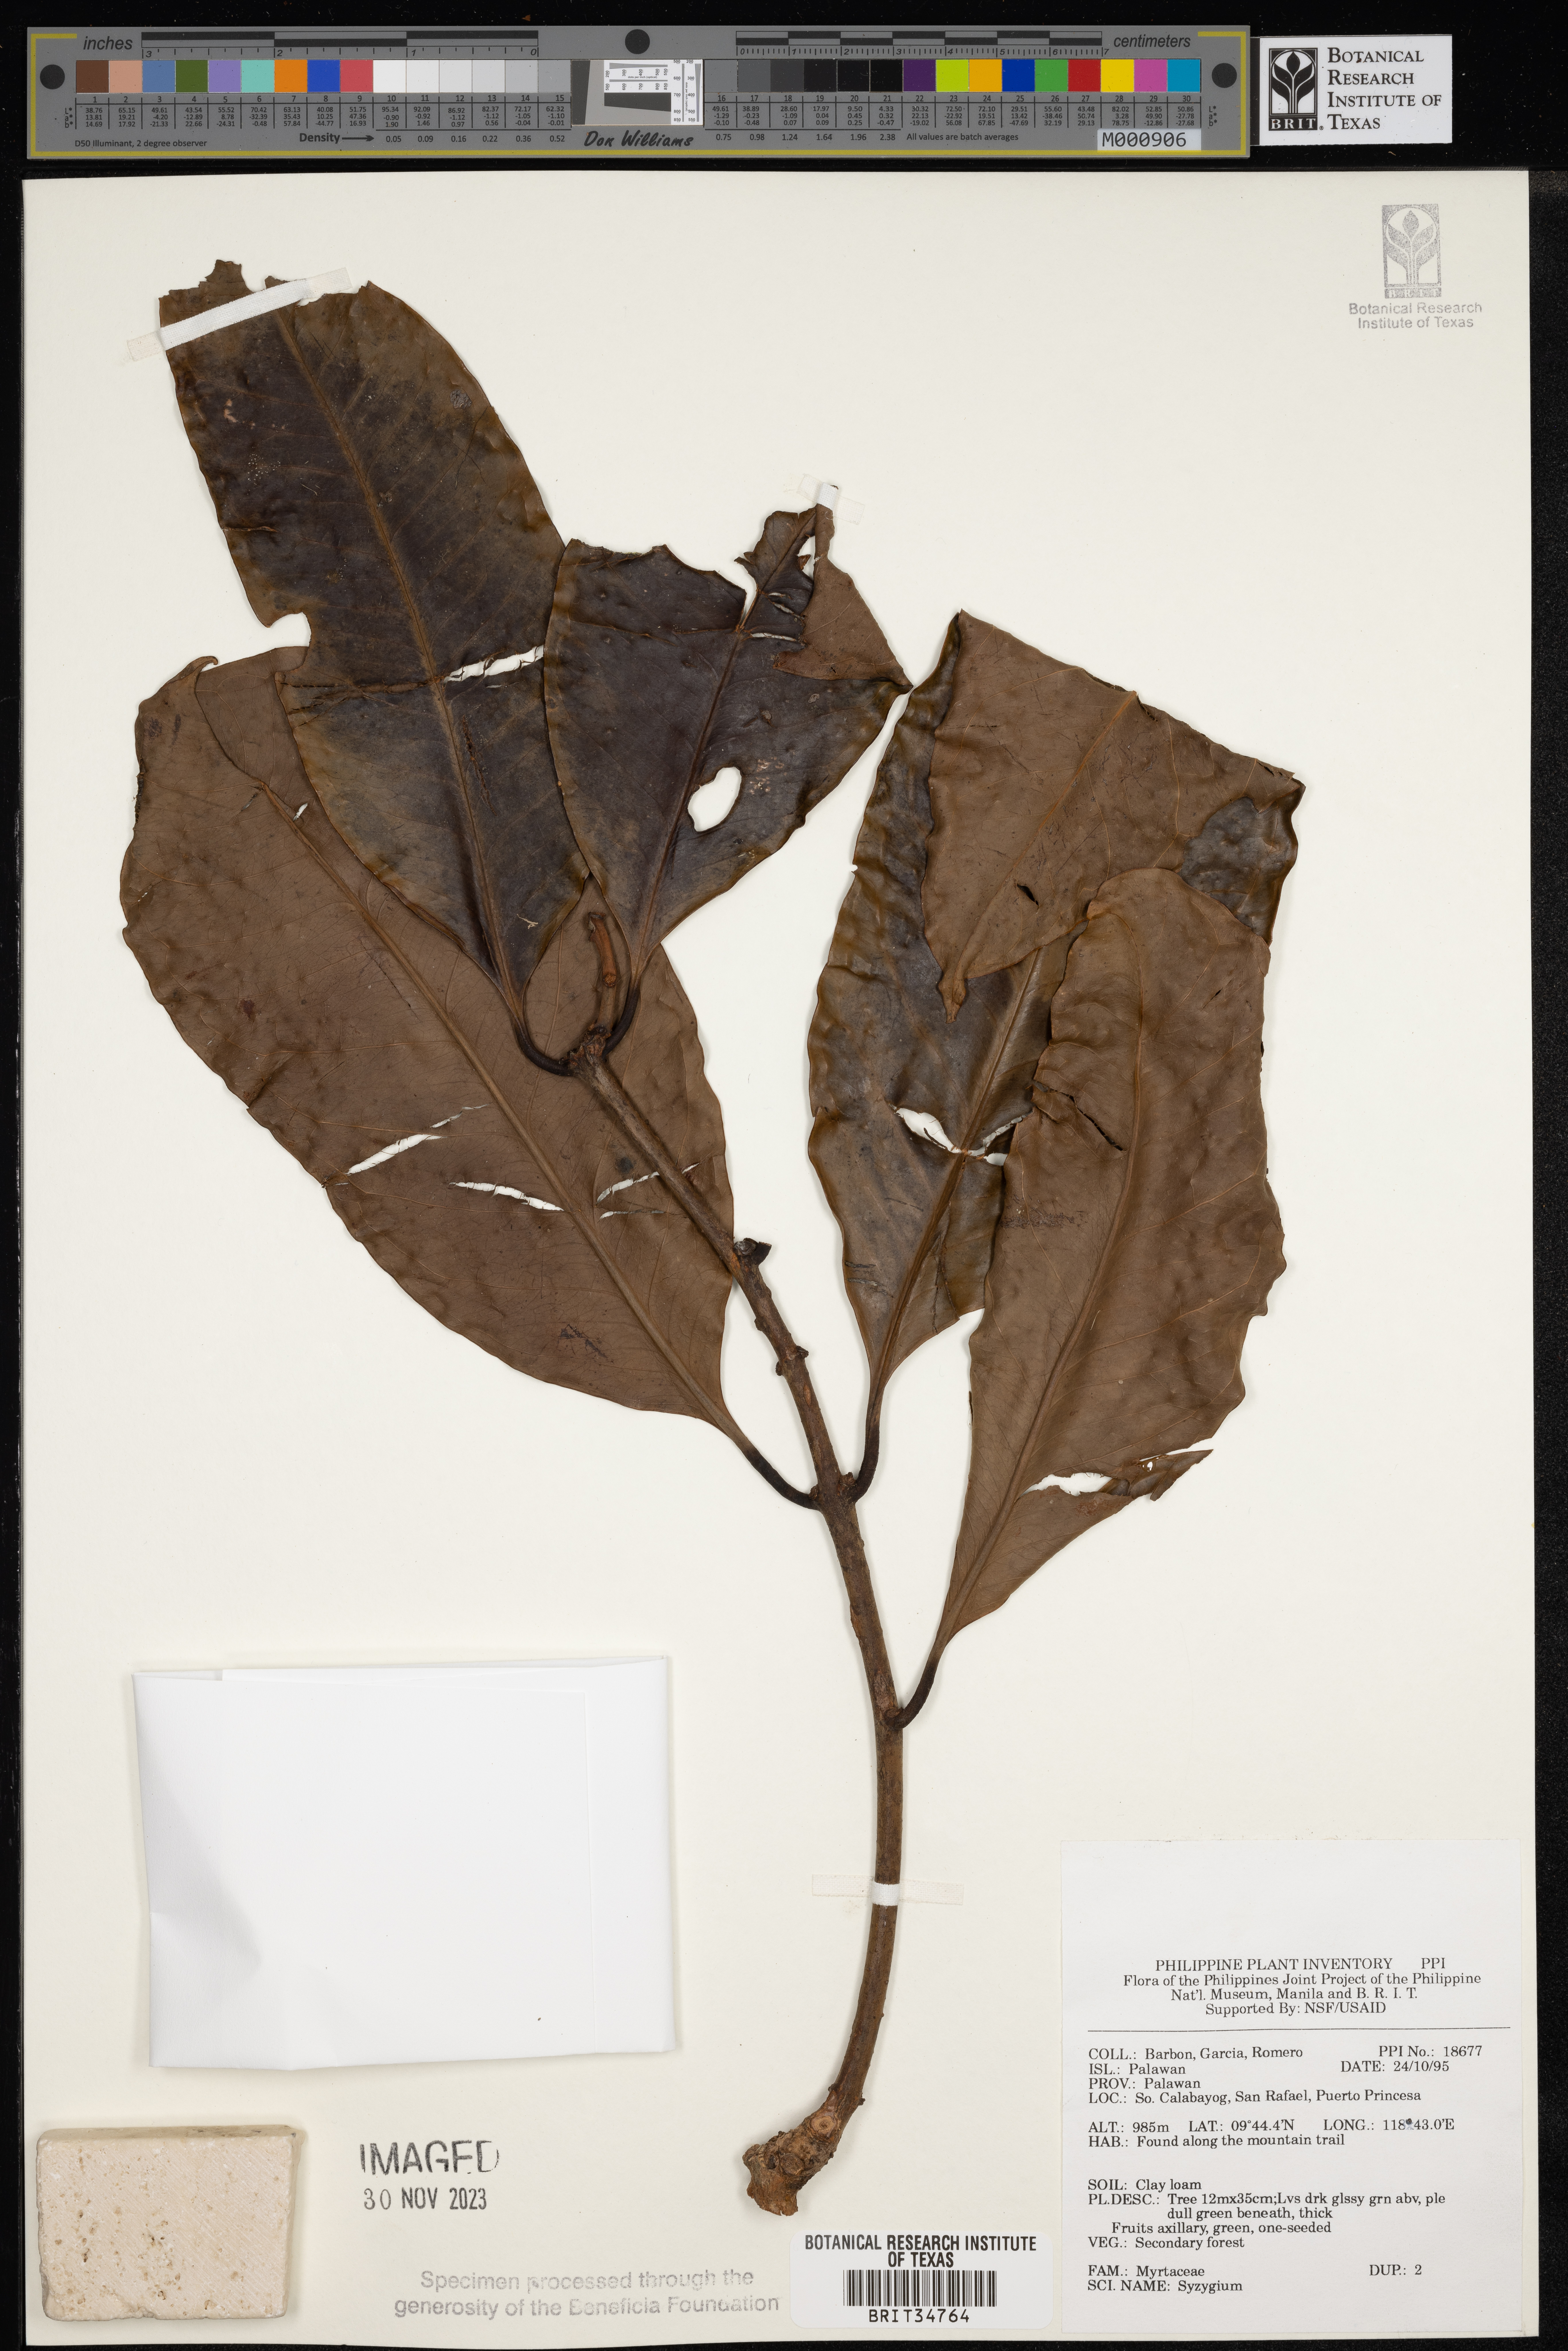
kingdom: Plantae
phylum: Tracheophyta
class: Magnoliopsida
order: Myrtales
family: Myrtaceae
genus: Syzygium
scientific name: Syzygium
